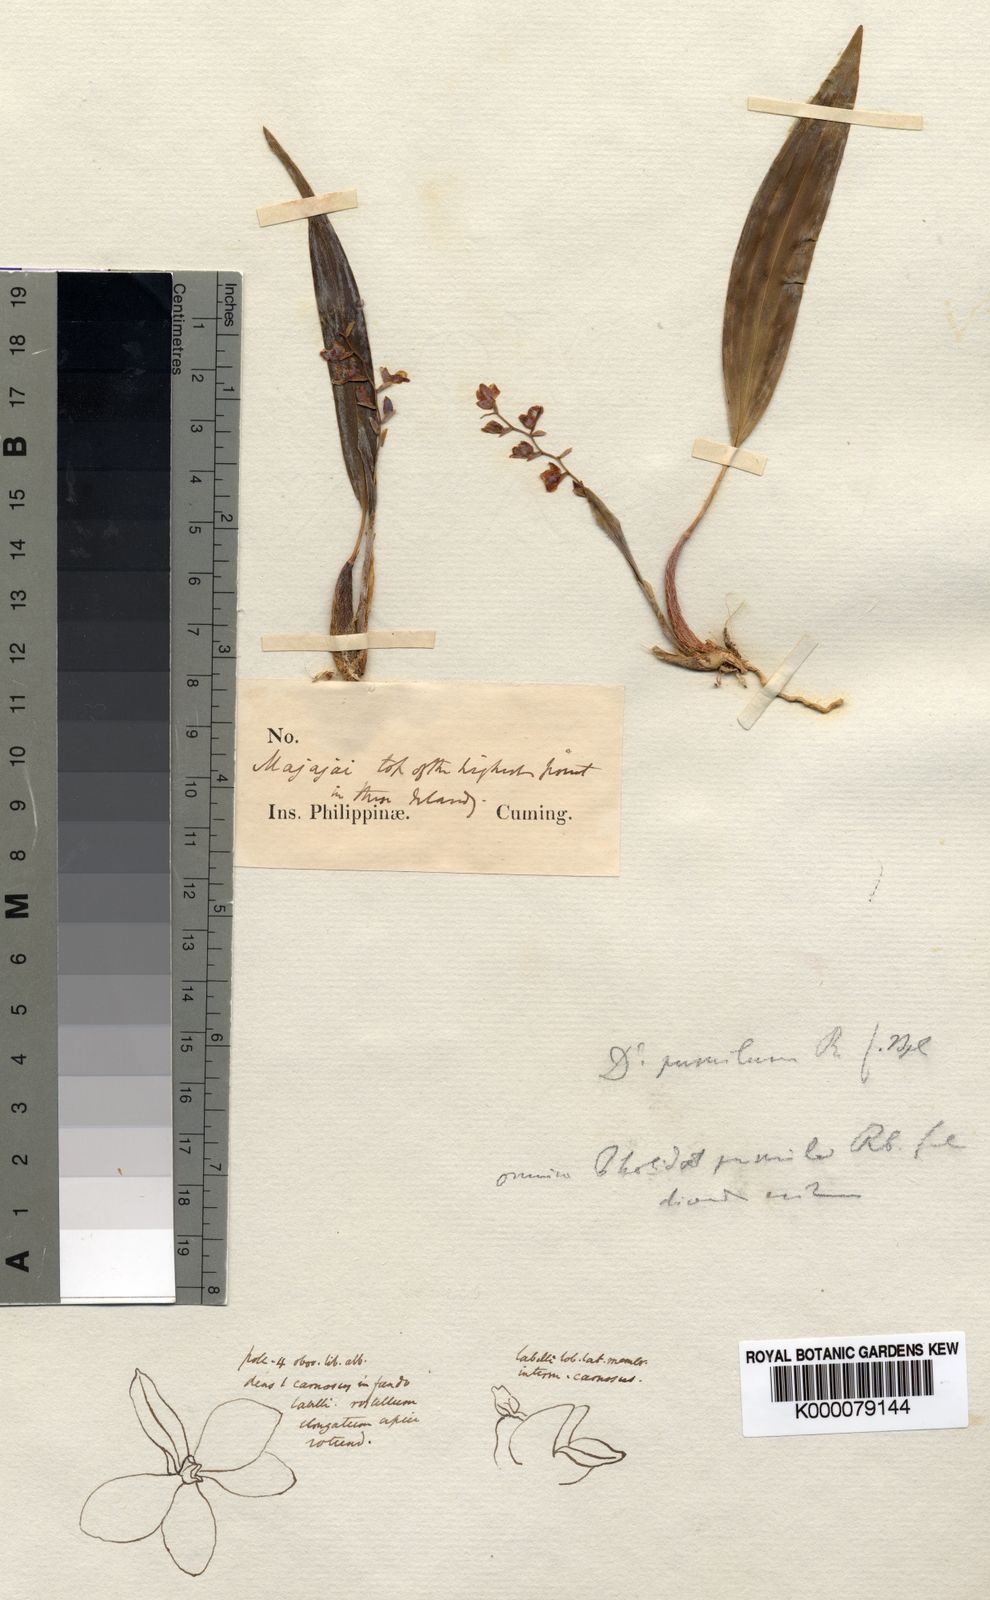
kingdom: Plantae
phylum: Tracheophyta
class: Liliopsida
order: Asparagales
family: Orchidaceae
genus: Coelogyne
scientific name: Coelogyne pumila
